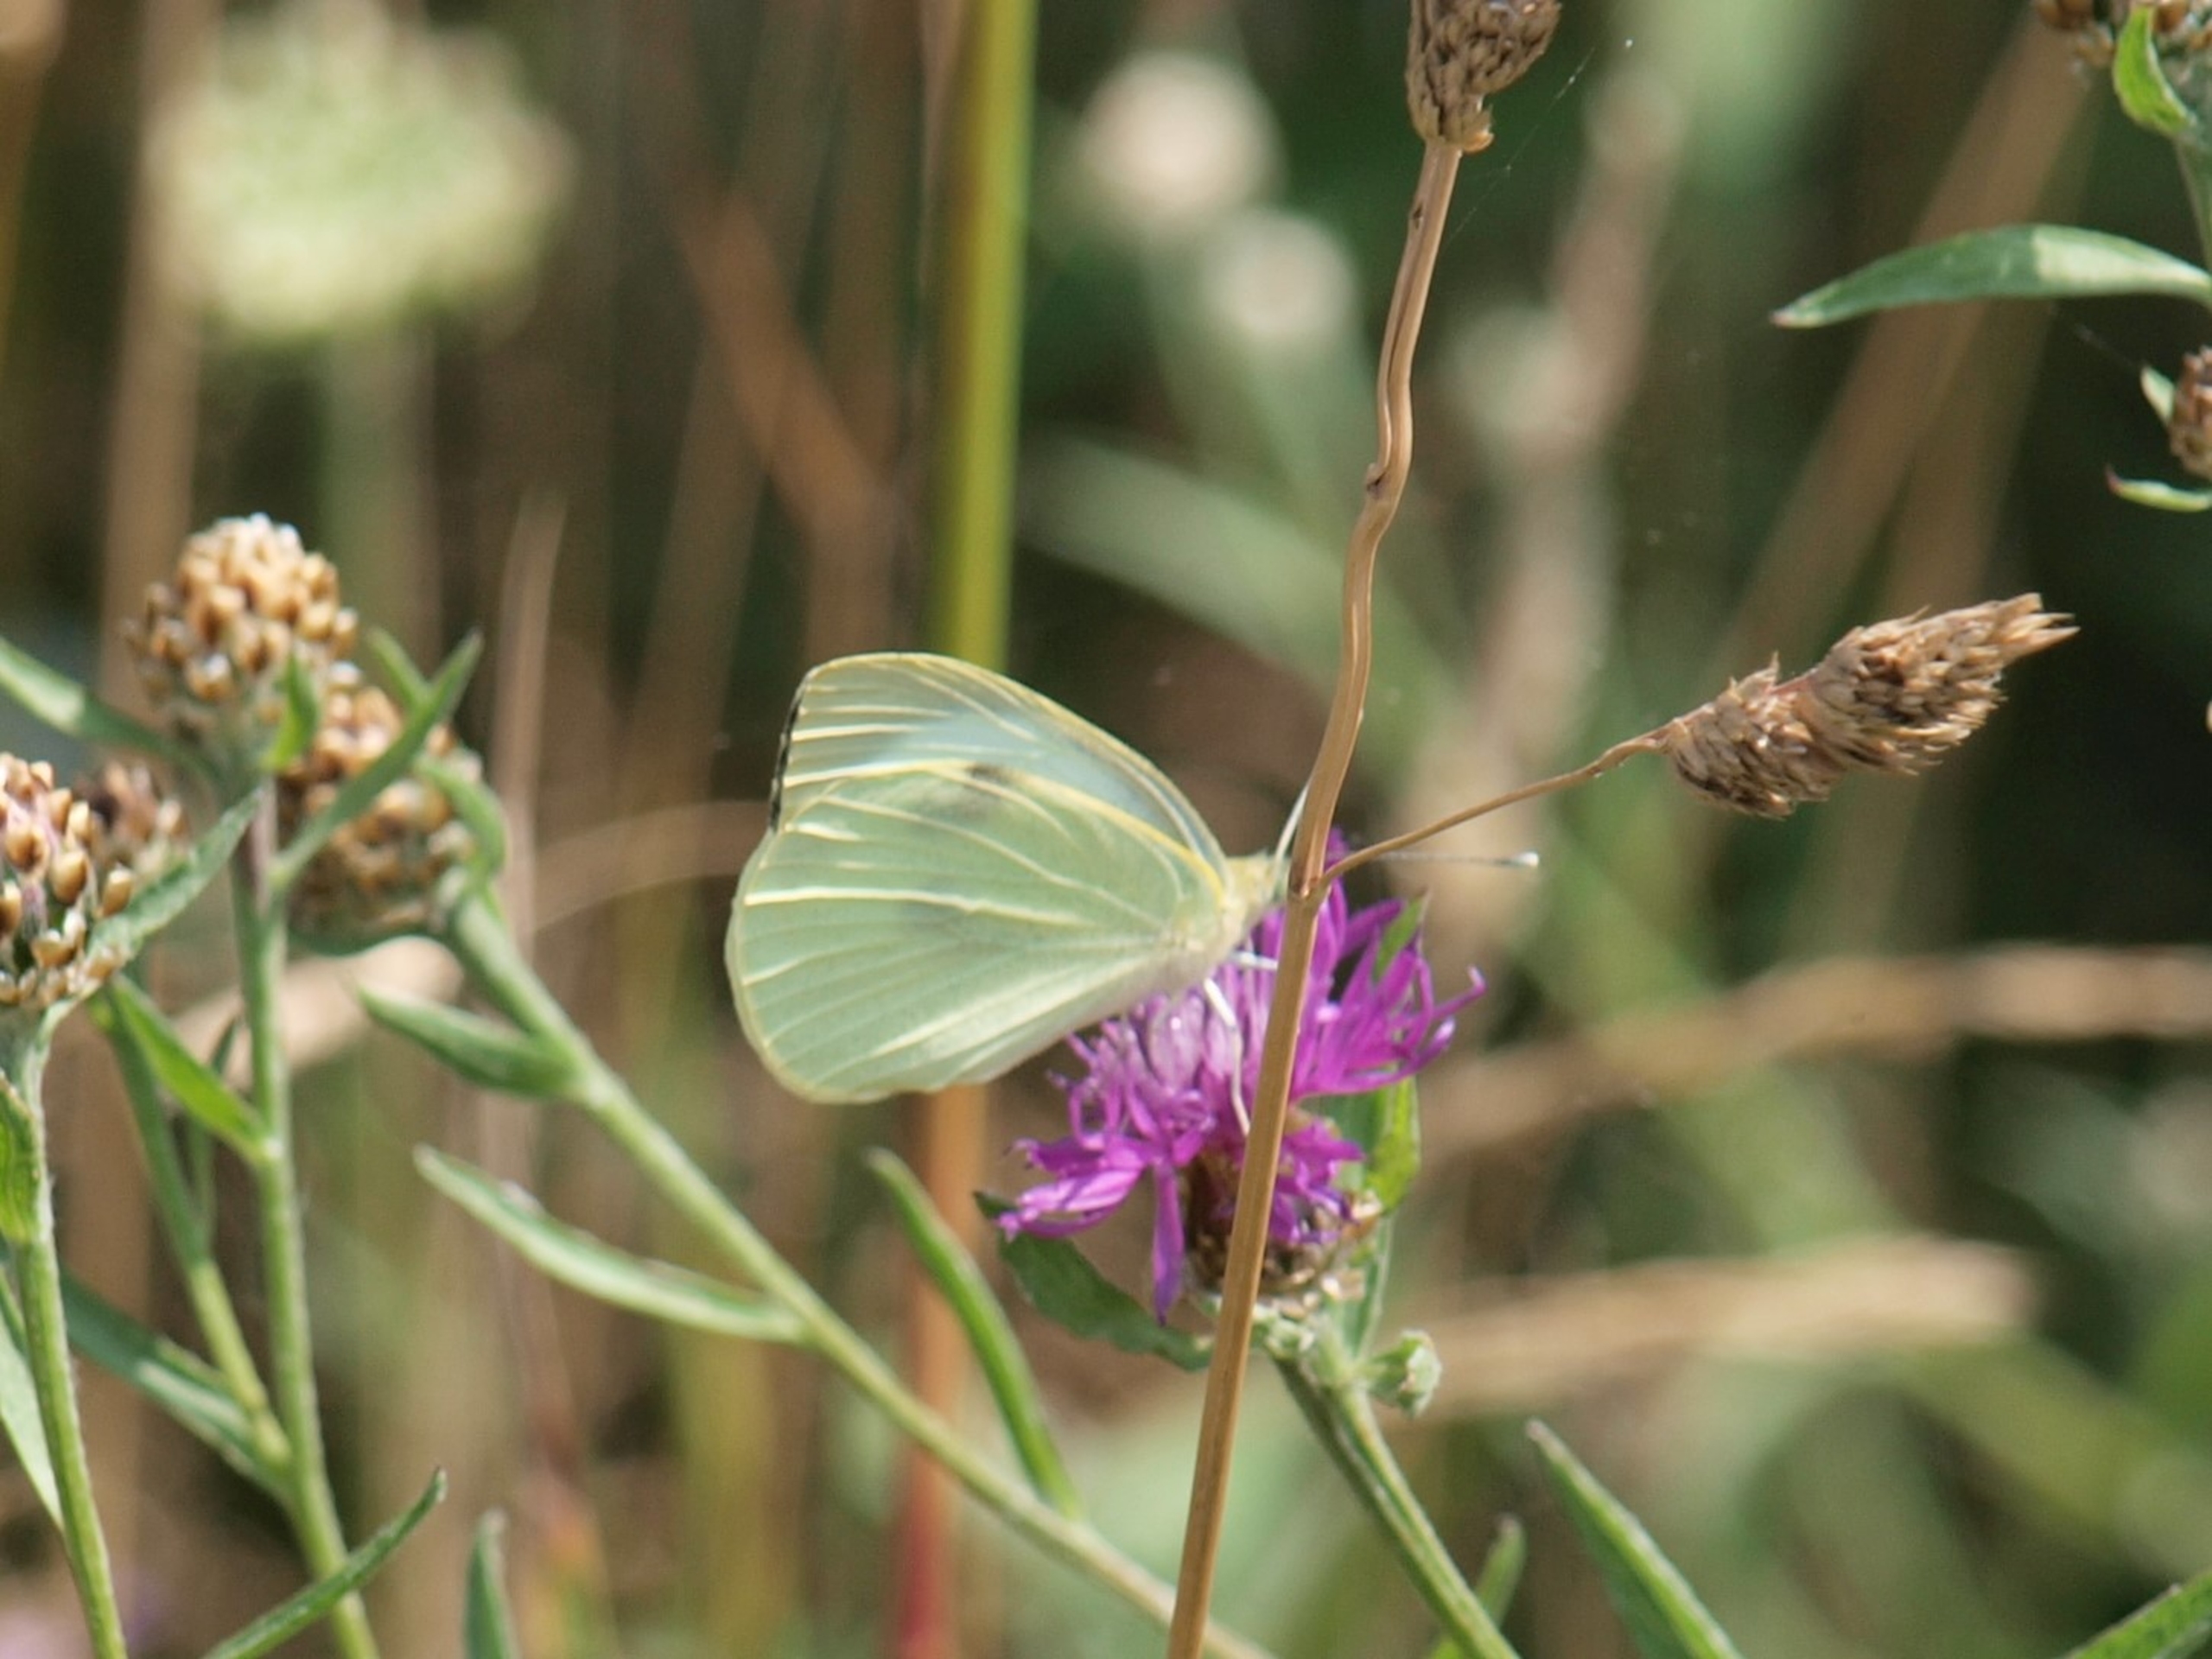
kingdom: Animalia
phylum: Arthropoda
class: Insecta
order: Lepidoptera
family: Pieridae
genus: Pieris
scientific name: Pieris brassicae
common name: Stor kålsommerfugl
